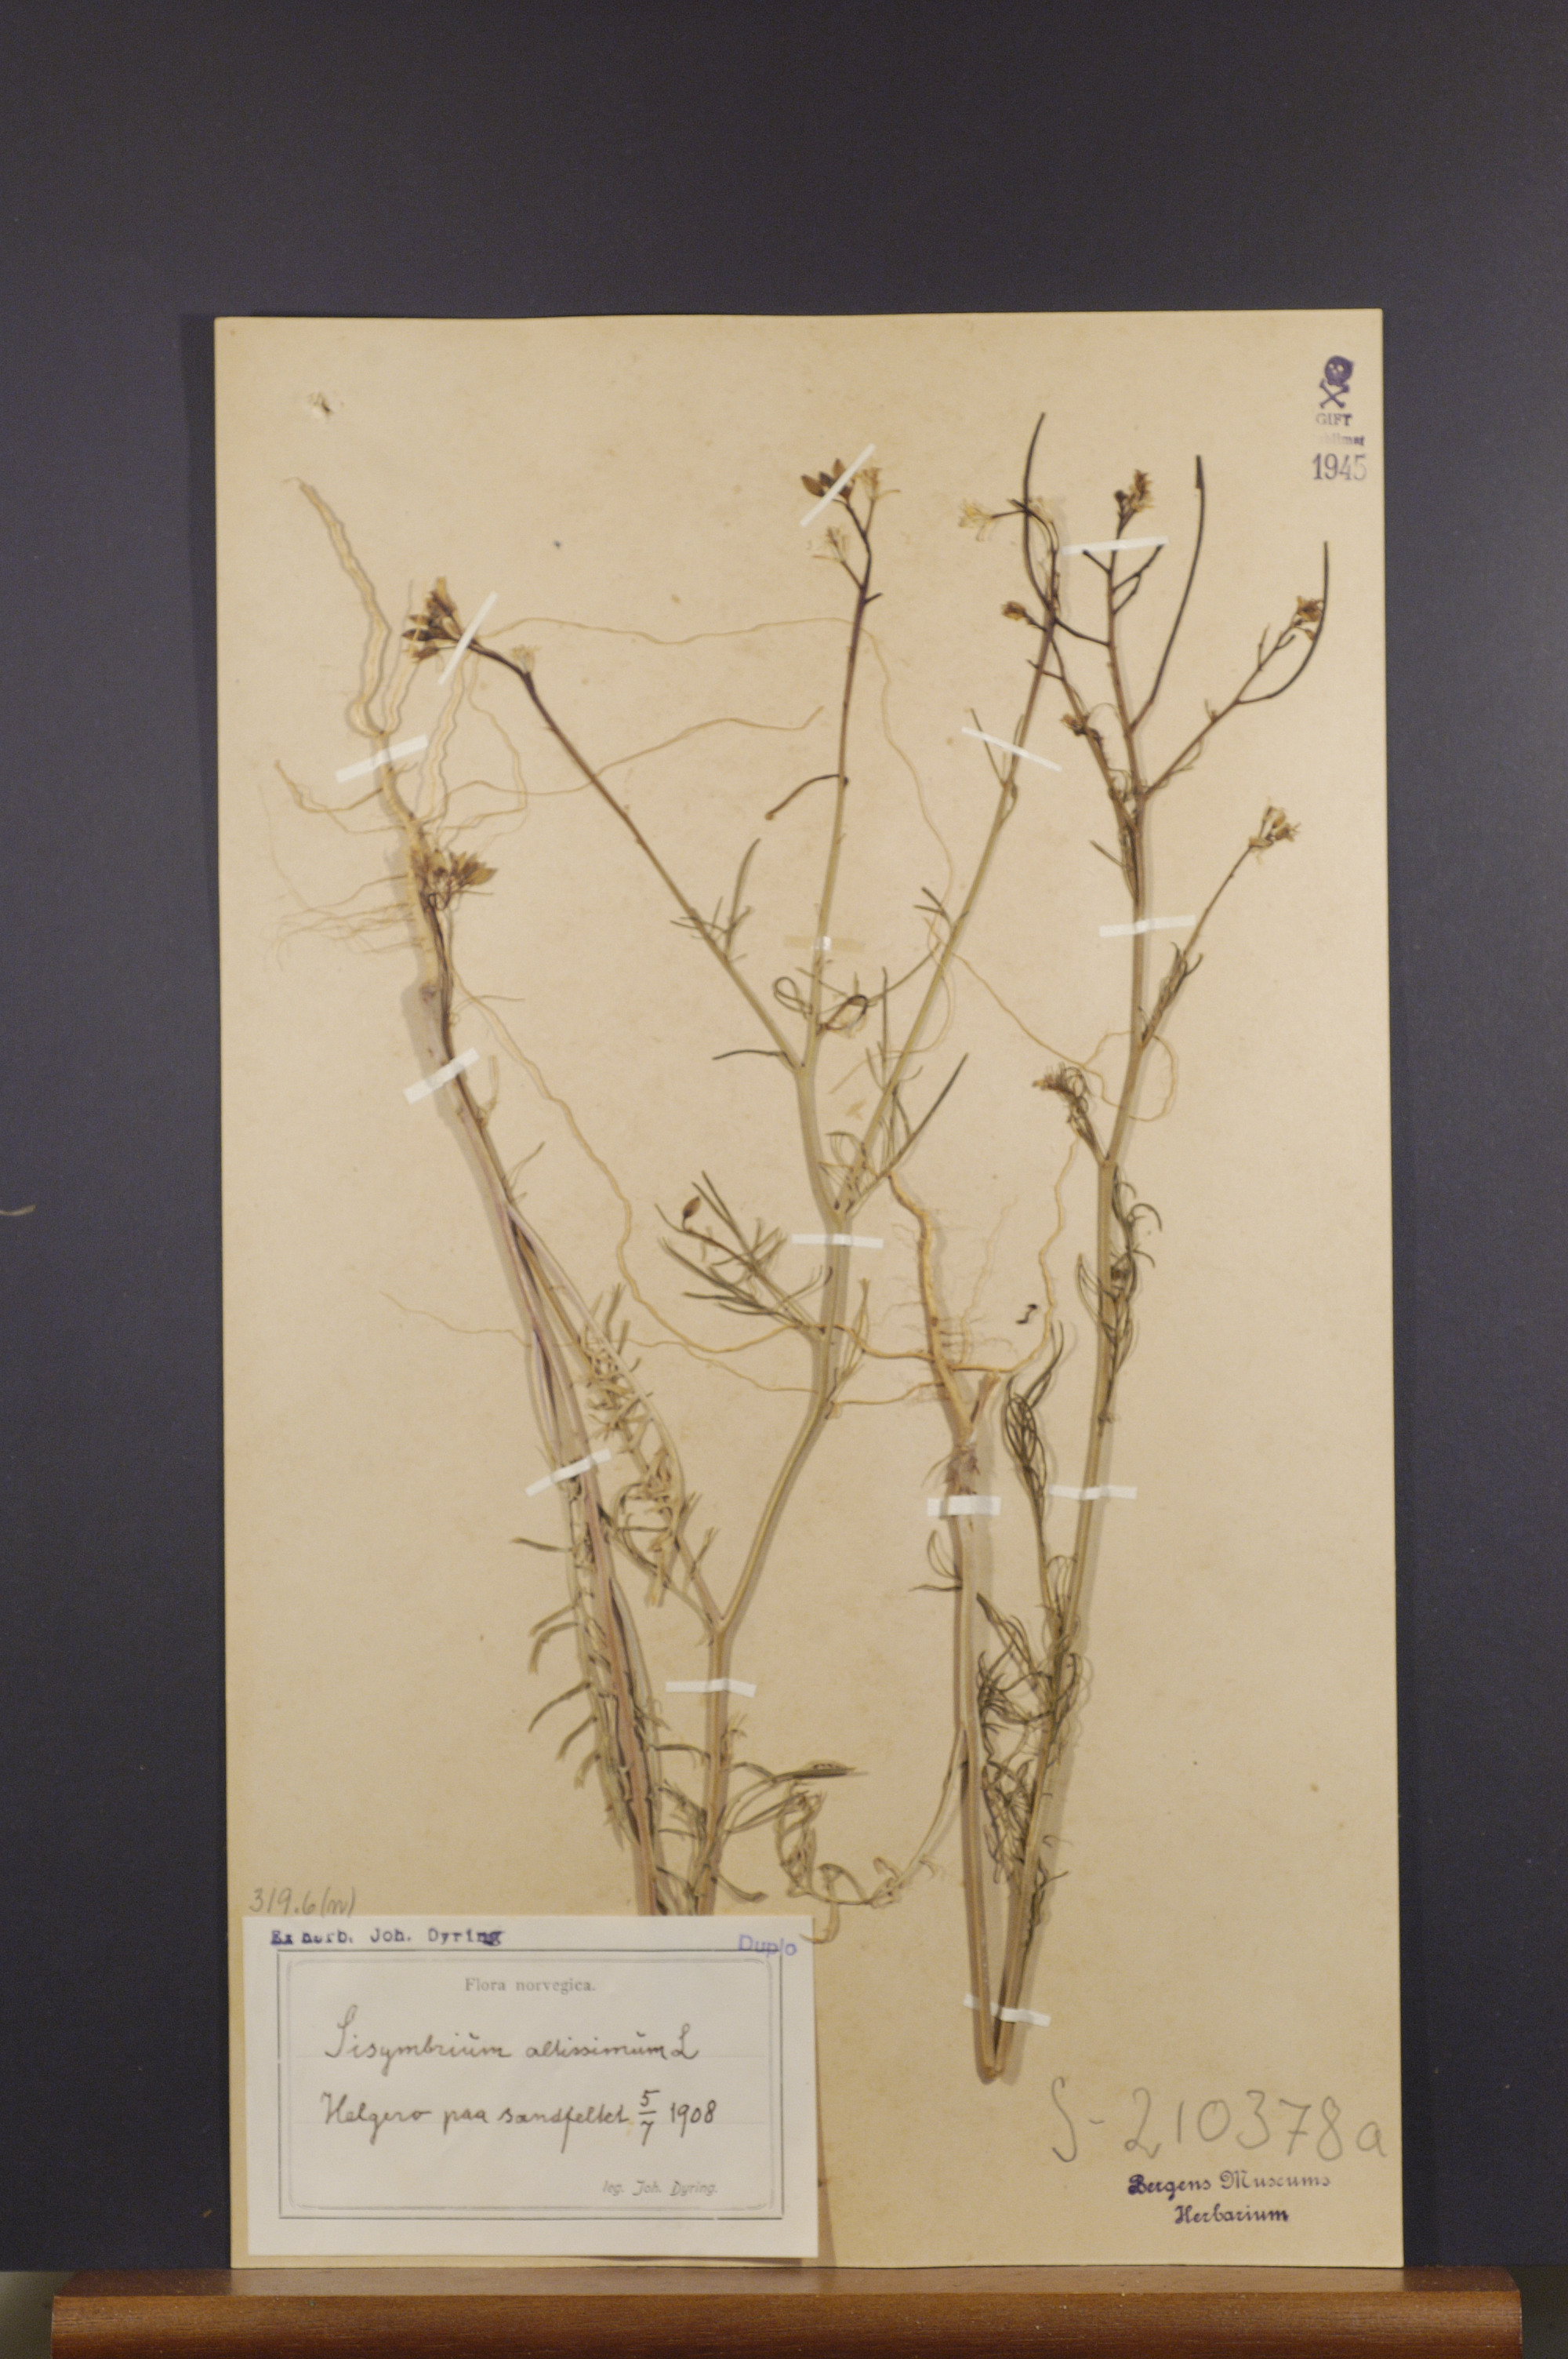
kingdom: Plantae
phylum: Tracheophyta
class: Magnoliopsida
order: Brassicales
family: Brassicaceae
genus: Sisymbrium
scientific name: Sisymbrium altissimum
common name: Tall rocket
